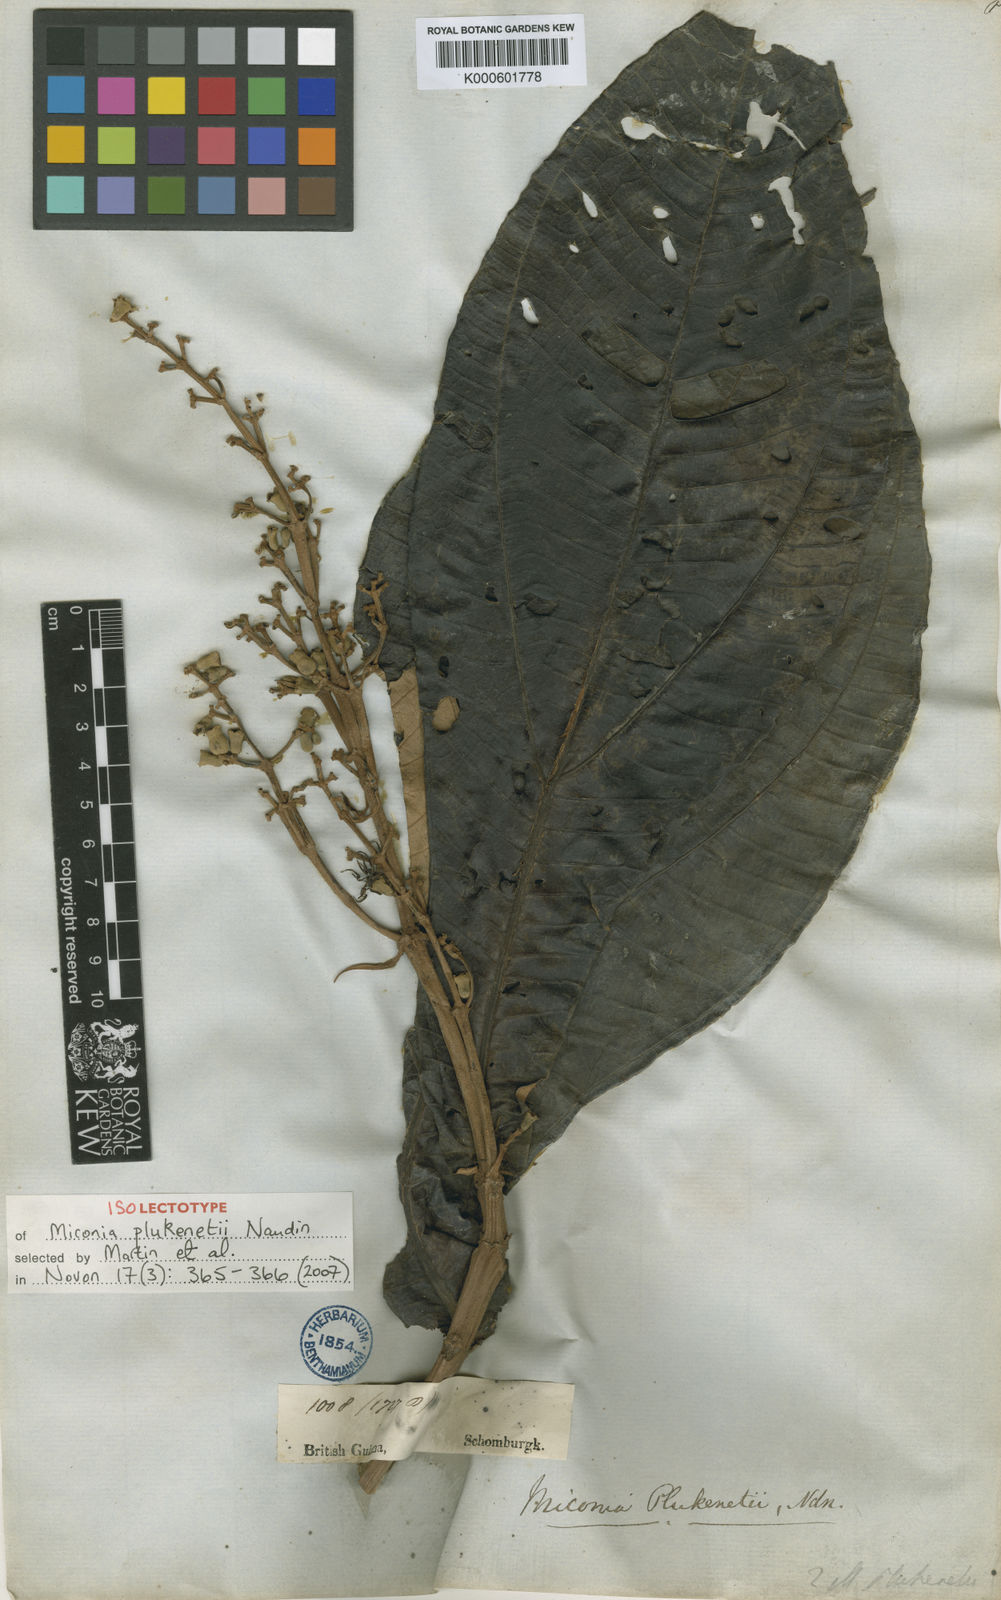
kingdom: Plantae
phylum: Tracheophyta
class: Magnoliopsida
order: Myrtales
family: Melastomataceae
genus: Miconia
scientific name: Miconia plukenetii
